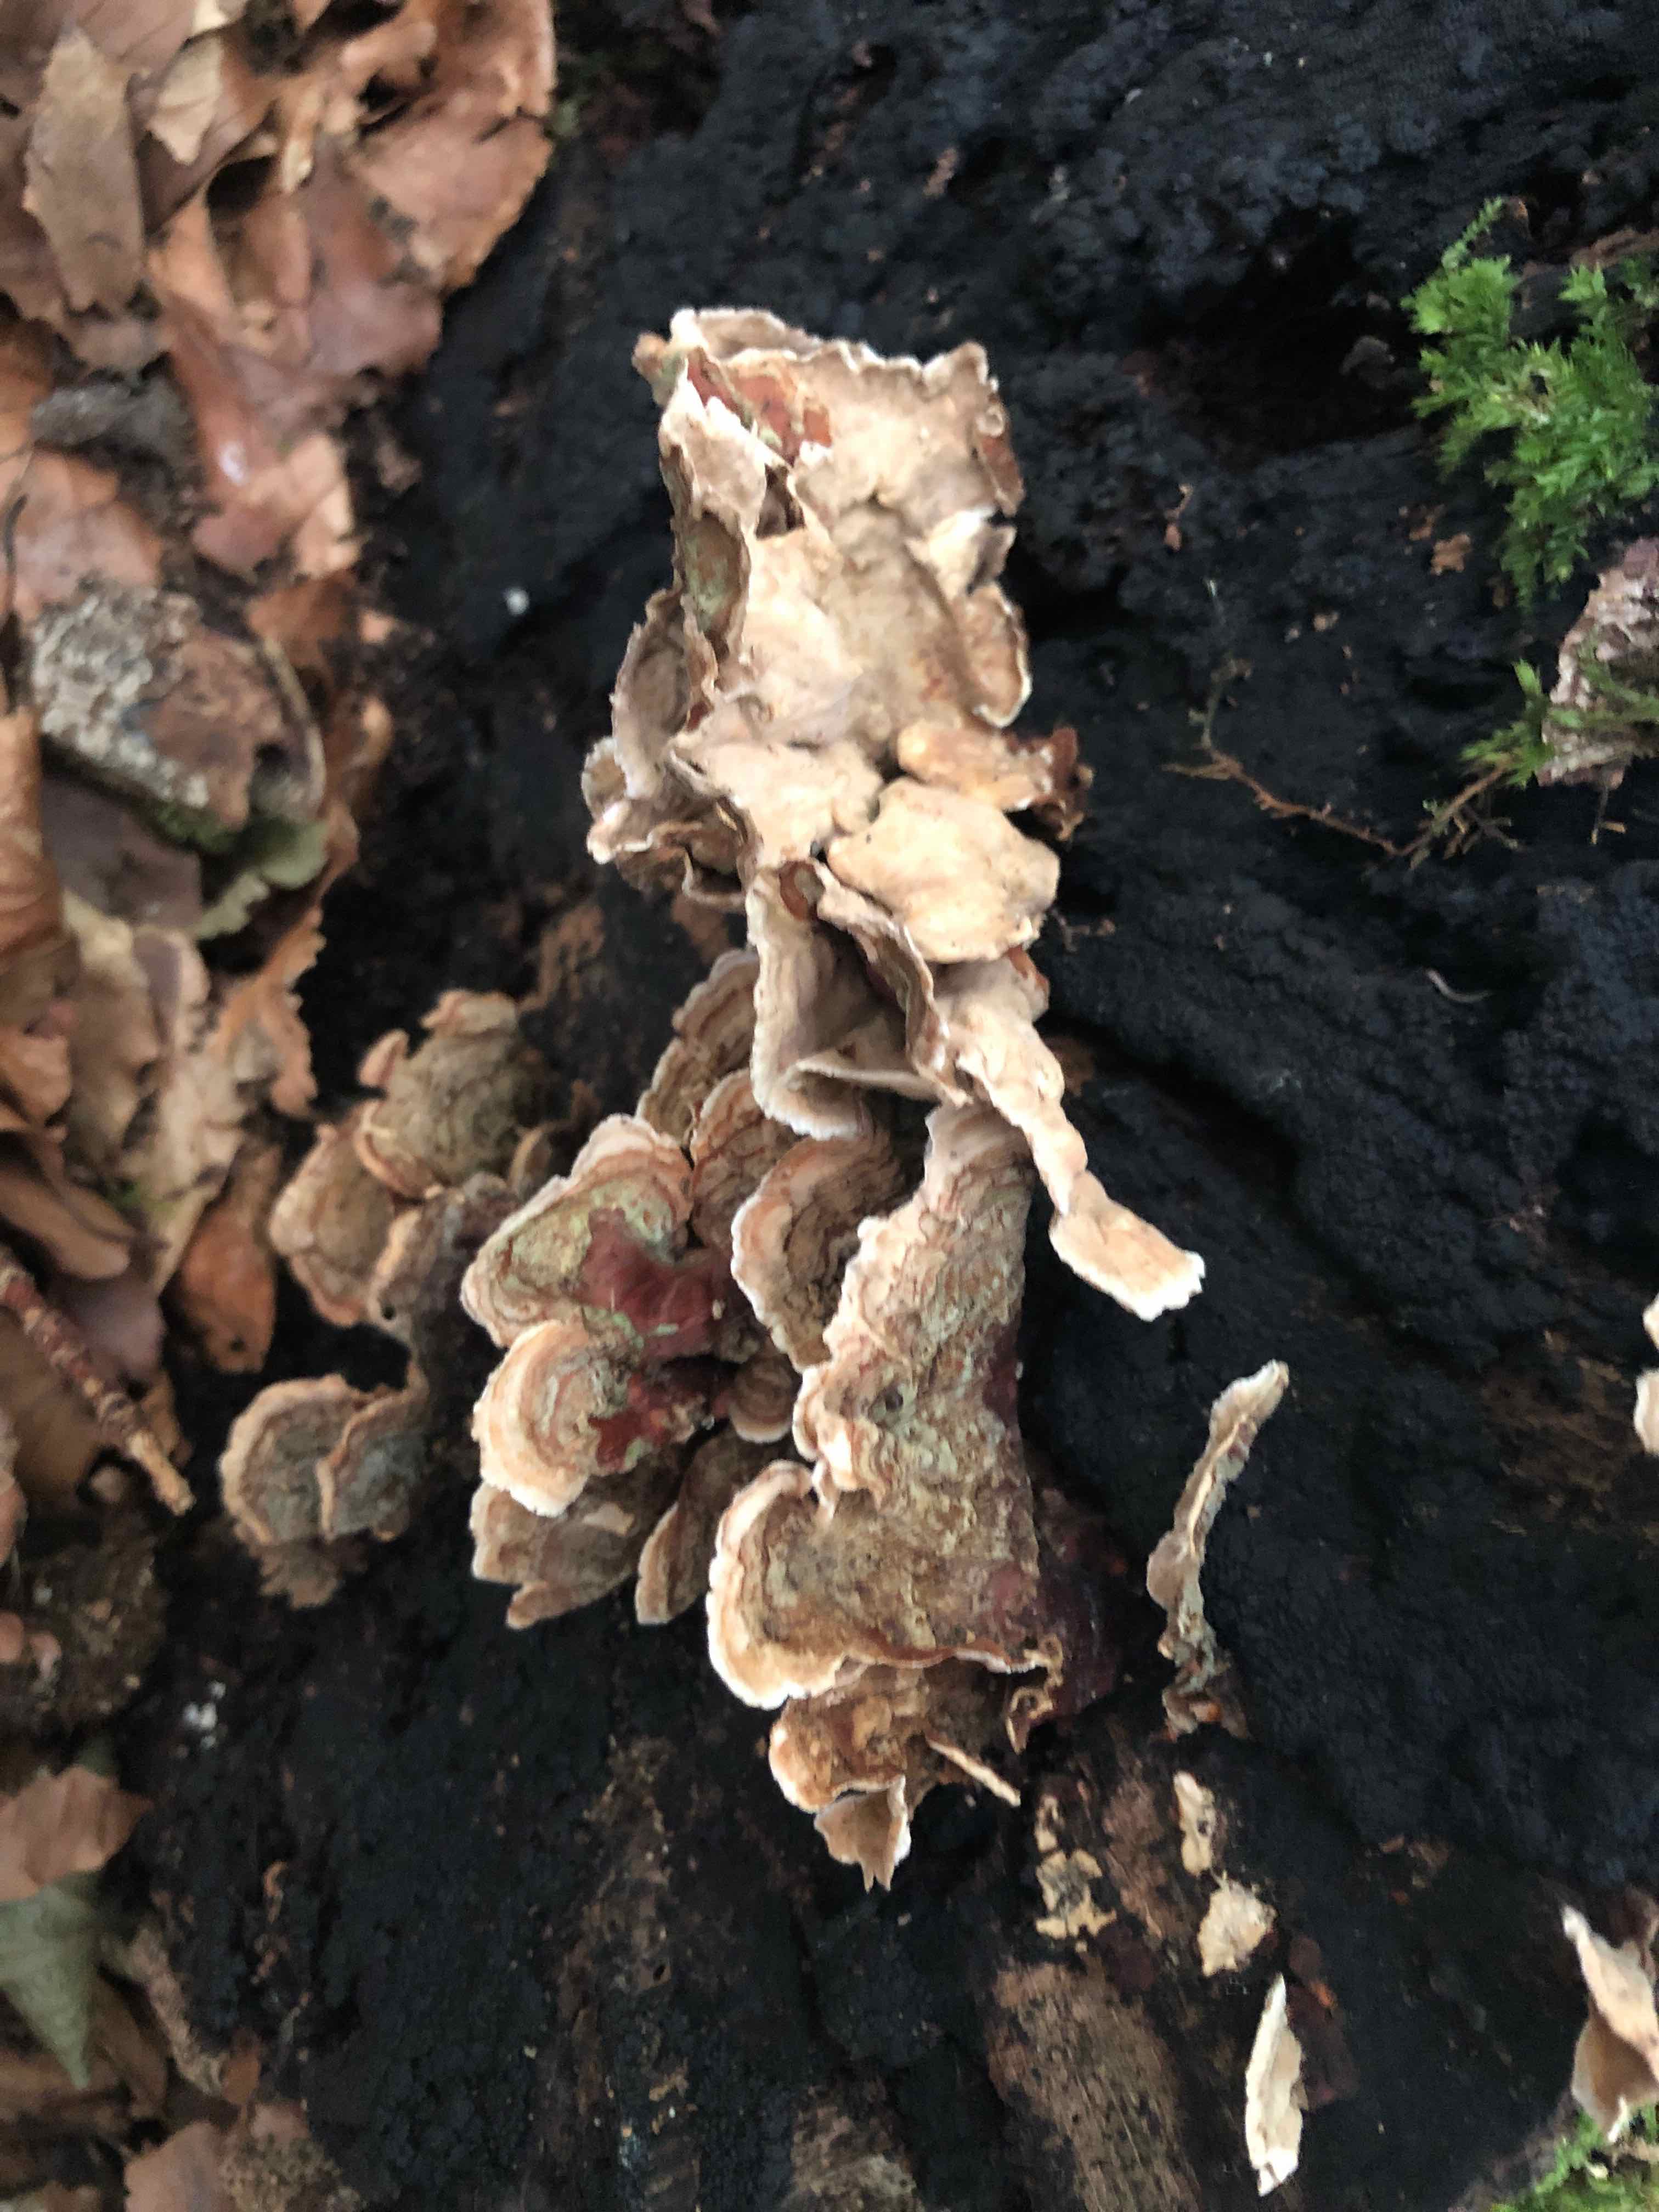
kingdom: Fungi
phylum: Basidiomycota
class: Agaricomycetes
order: Russulales
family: Stereaceae
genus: Stereum
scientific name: Stereum subtomentosum
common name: smuk lædersvamp
